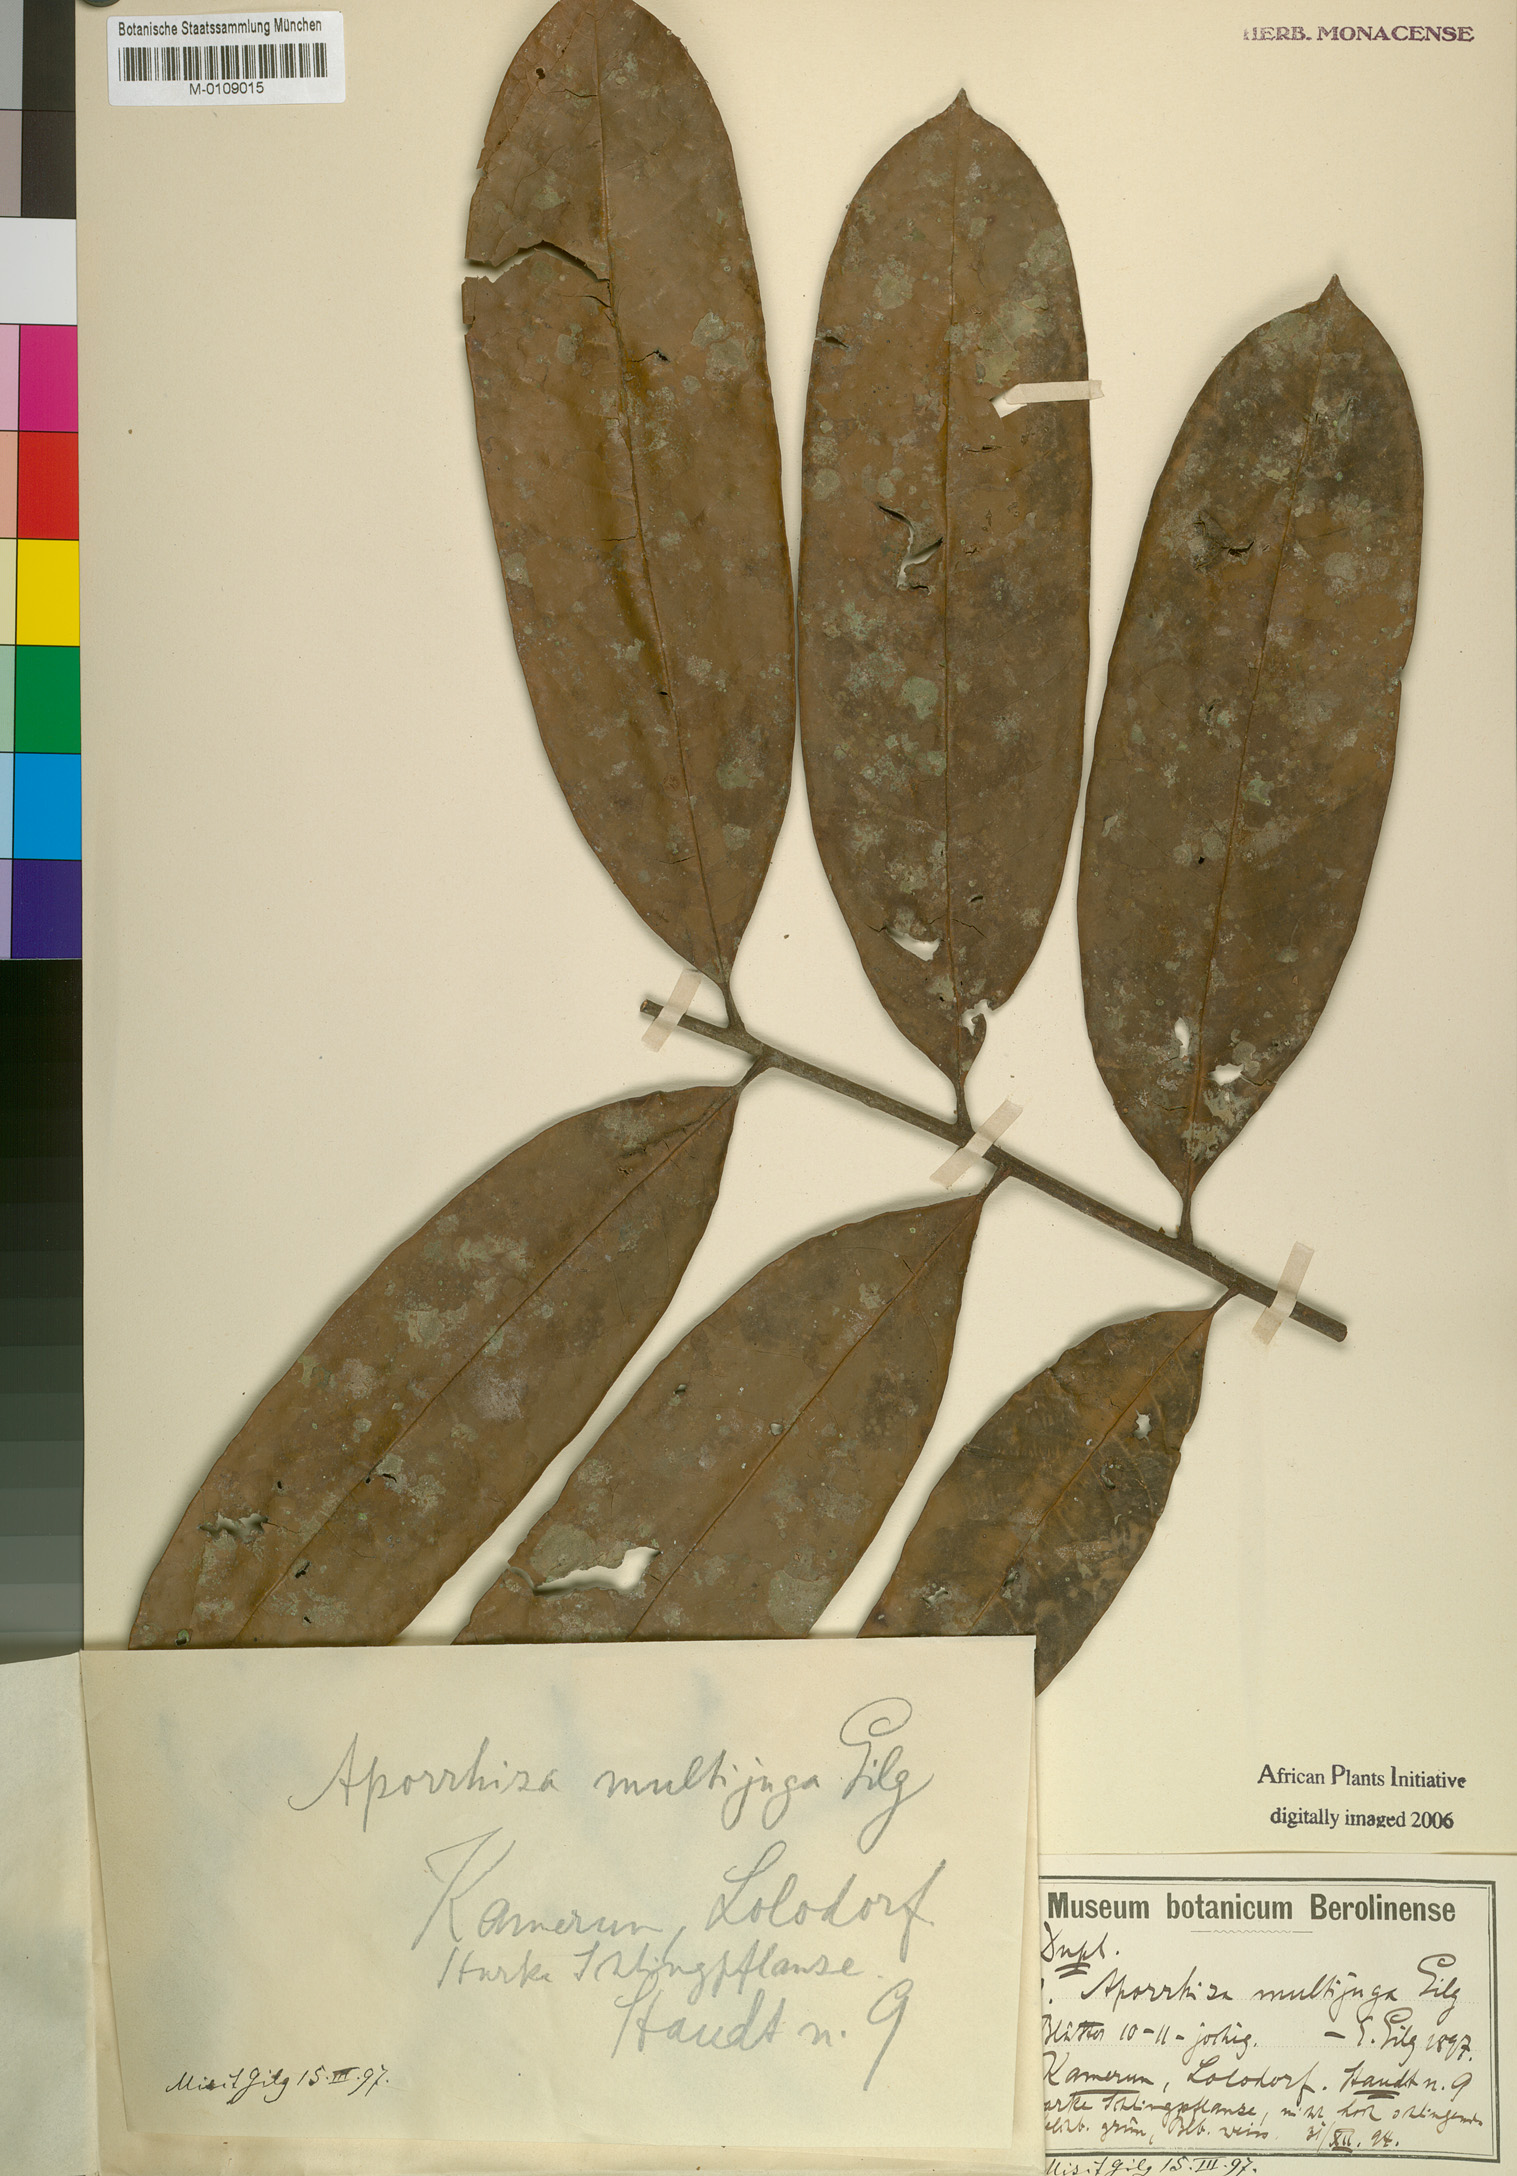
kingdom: Plantae
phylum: Tracheophyta
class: Magnoliopsida
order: Sapindales
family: Sapindaceae
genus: Aporrhiza
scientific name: Aporrhiza multijuga
